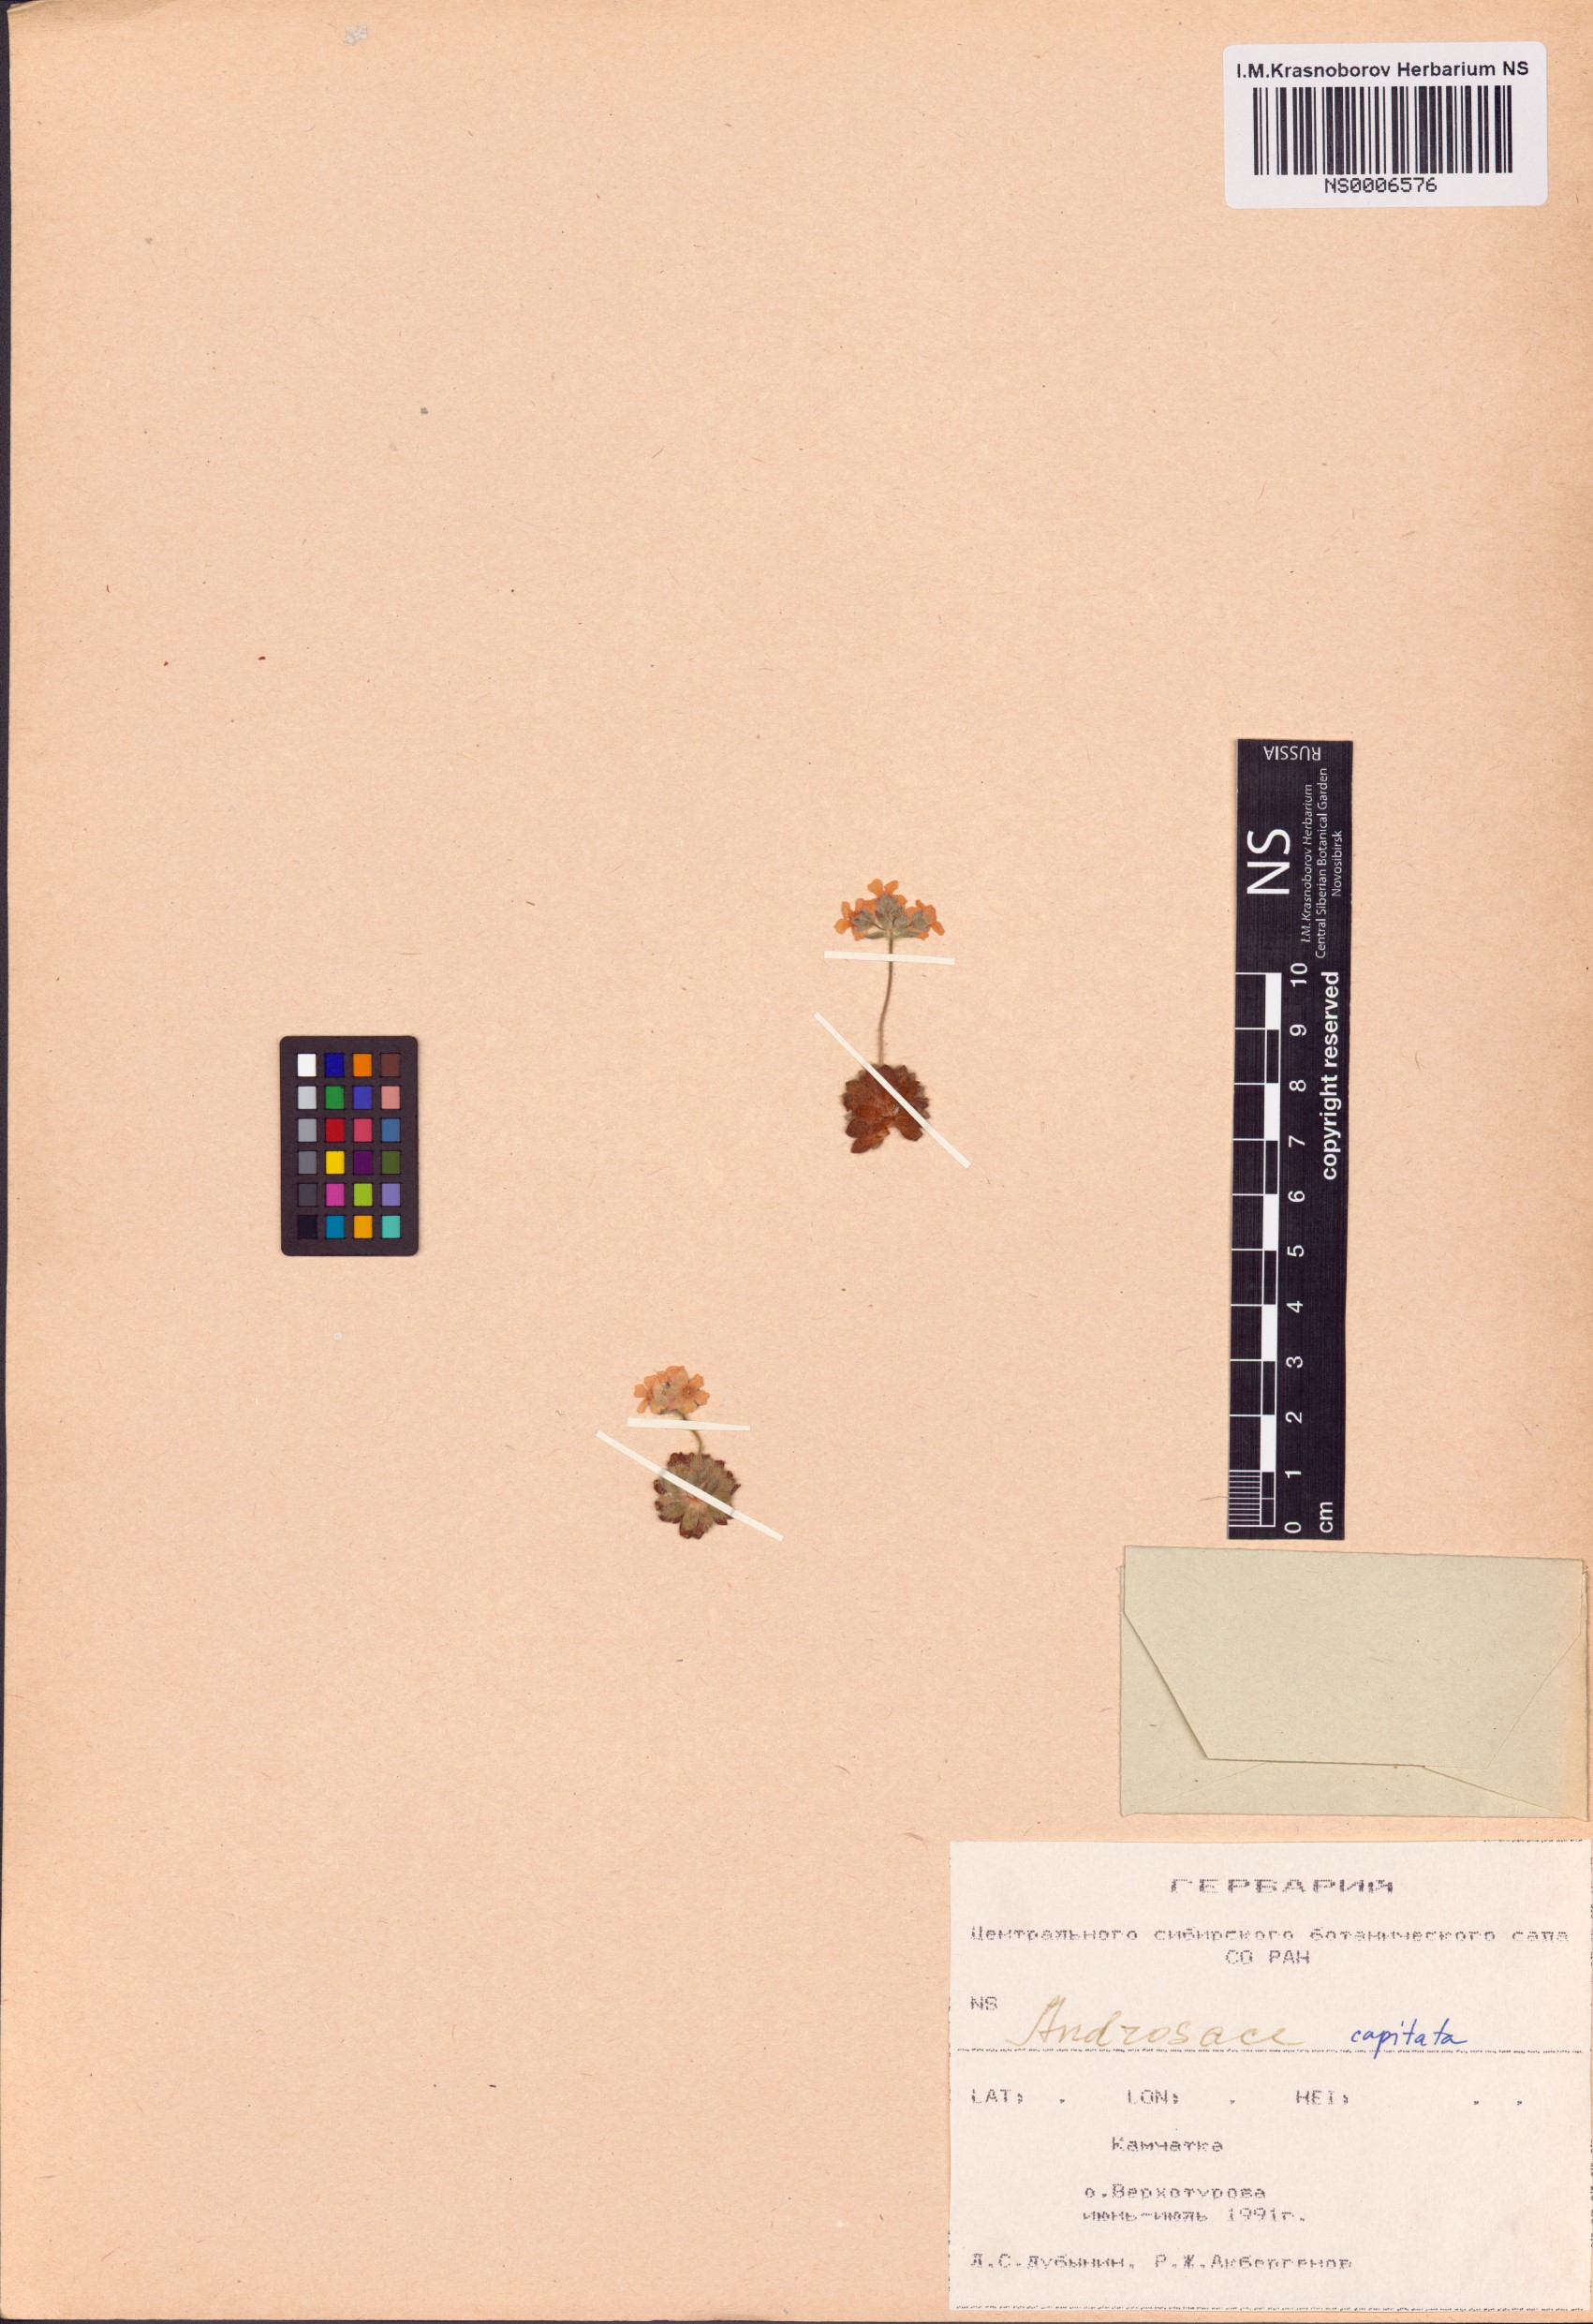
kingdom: Plantae
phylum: Tracheophyta
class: Magnoliopsida
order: Ericales
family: Primulaceae
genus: Androsace
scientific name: Androsace chamaejasme
